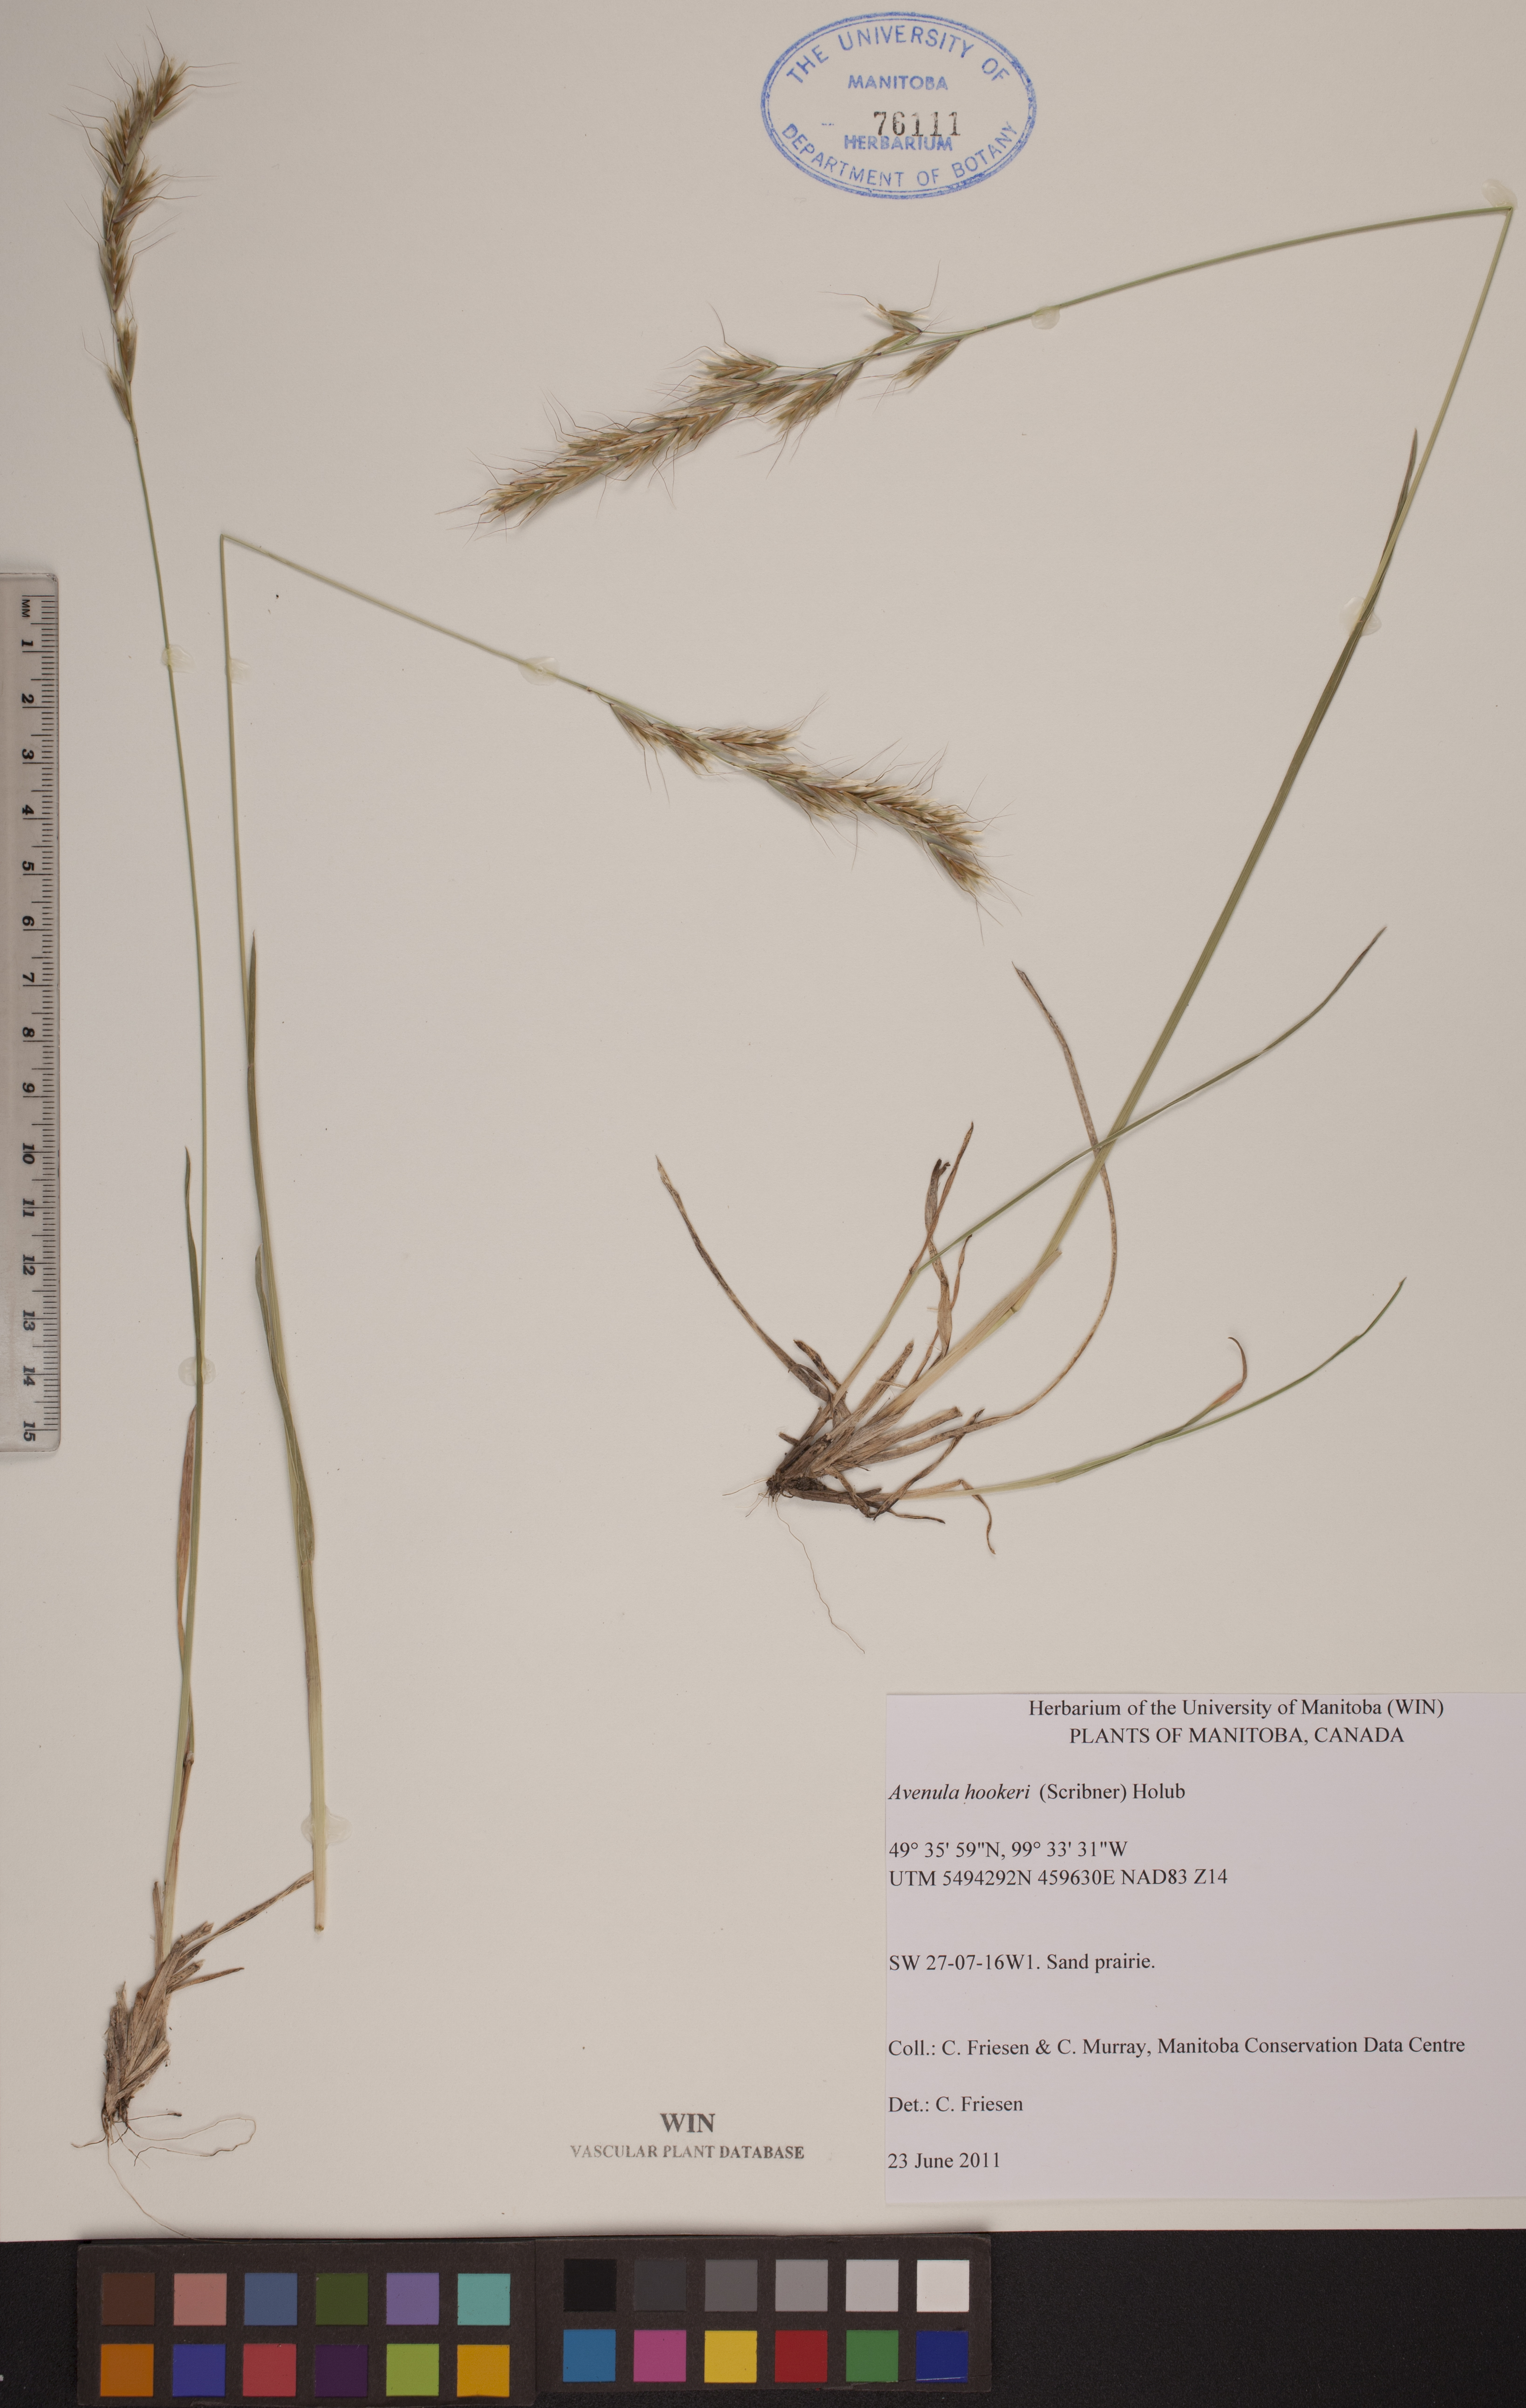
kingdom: Plantae
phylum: Tracheophyta
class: Liliopsida
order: Poales
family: Poaceae
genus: Helictochloa
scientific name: Helictochloa hookeri
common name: Hooker's alpine oatgrass
